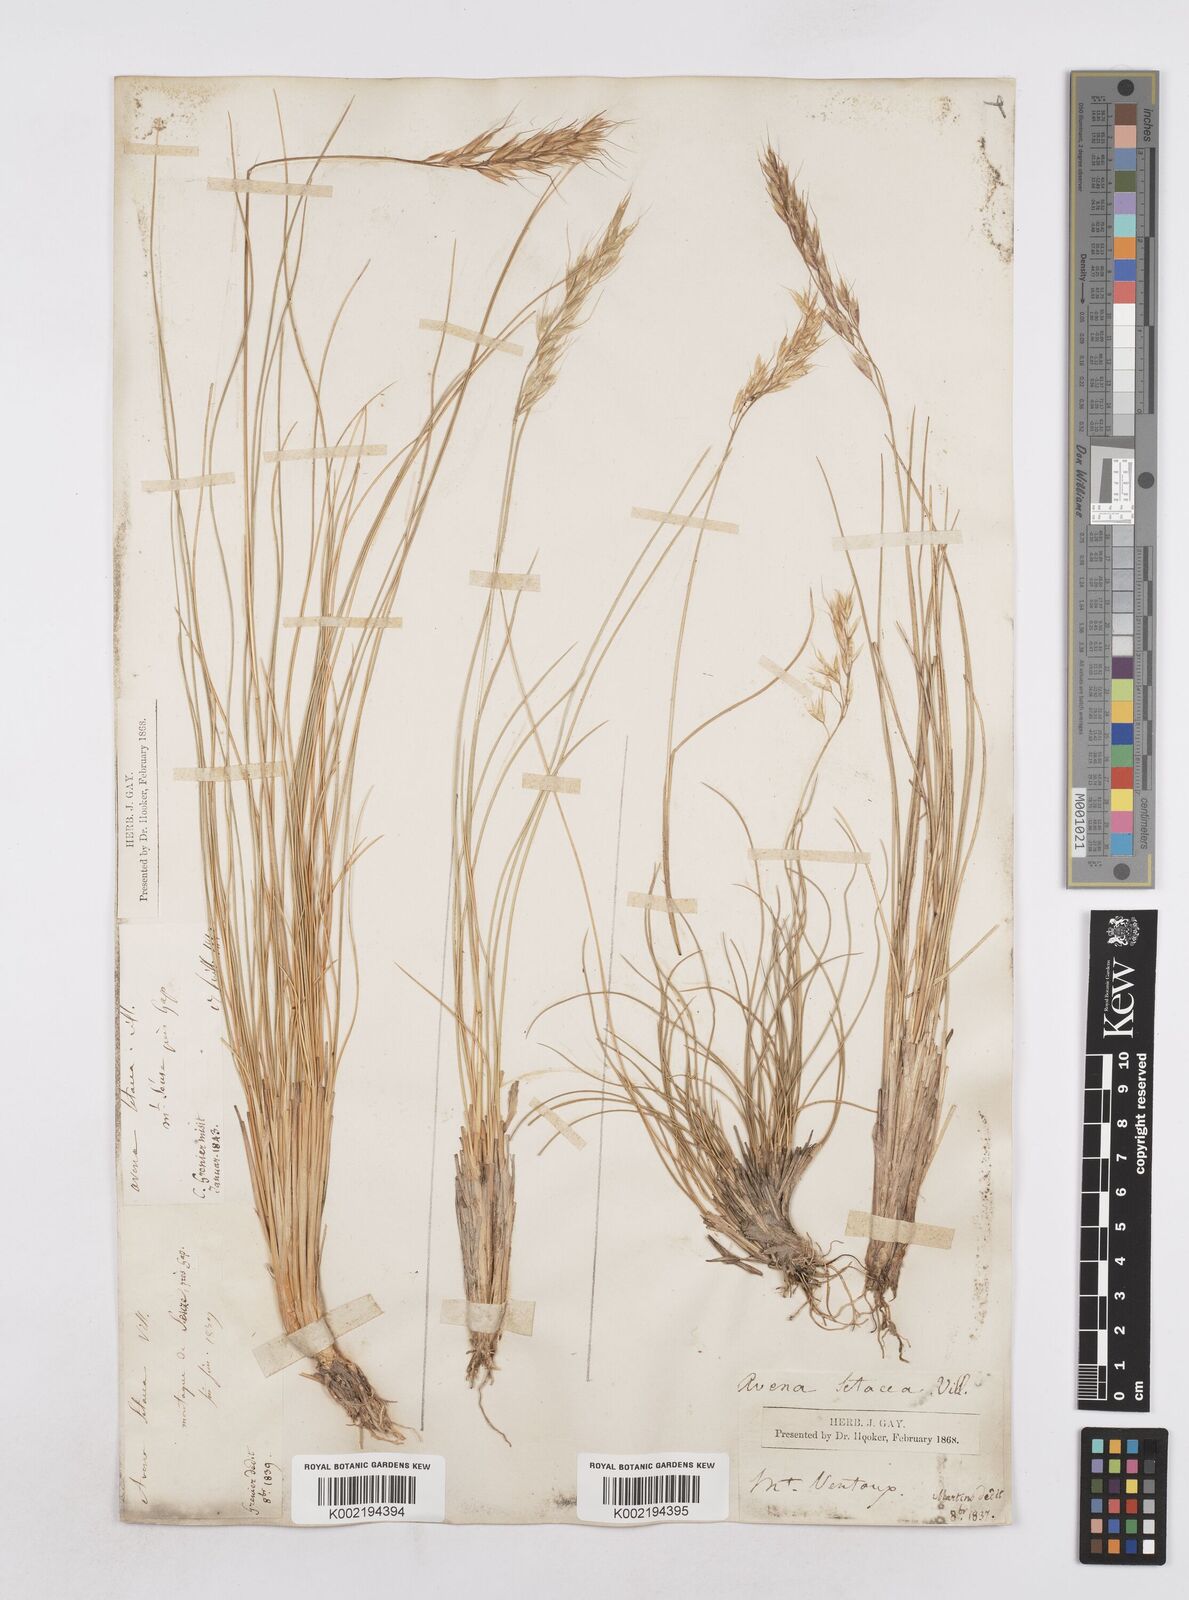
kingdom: Plantae
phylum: Tracheophyta
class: Liliopsida
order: Poales
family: Poaceae
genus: Helictotrichon
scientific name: Helictotrichon setaceum
